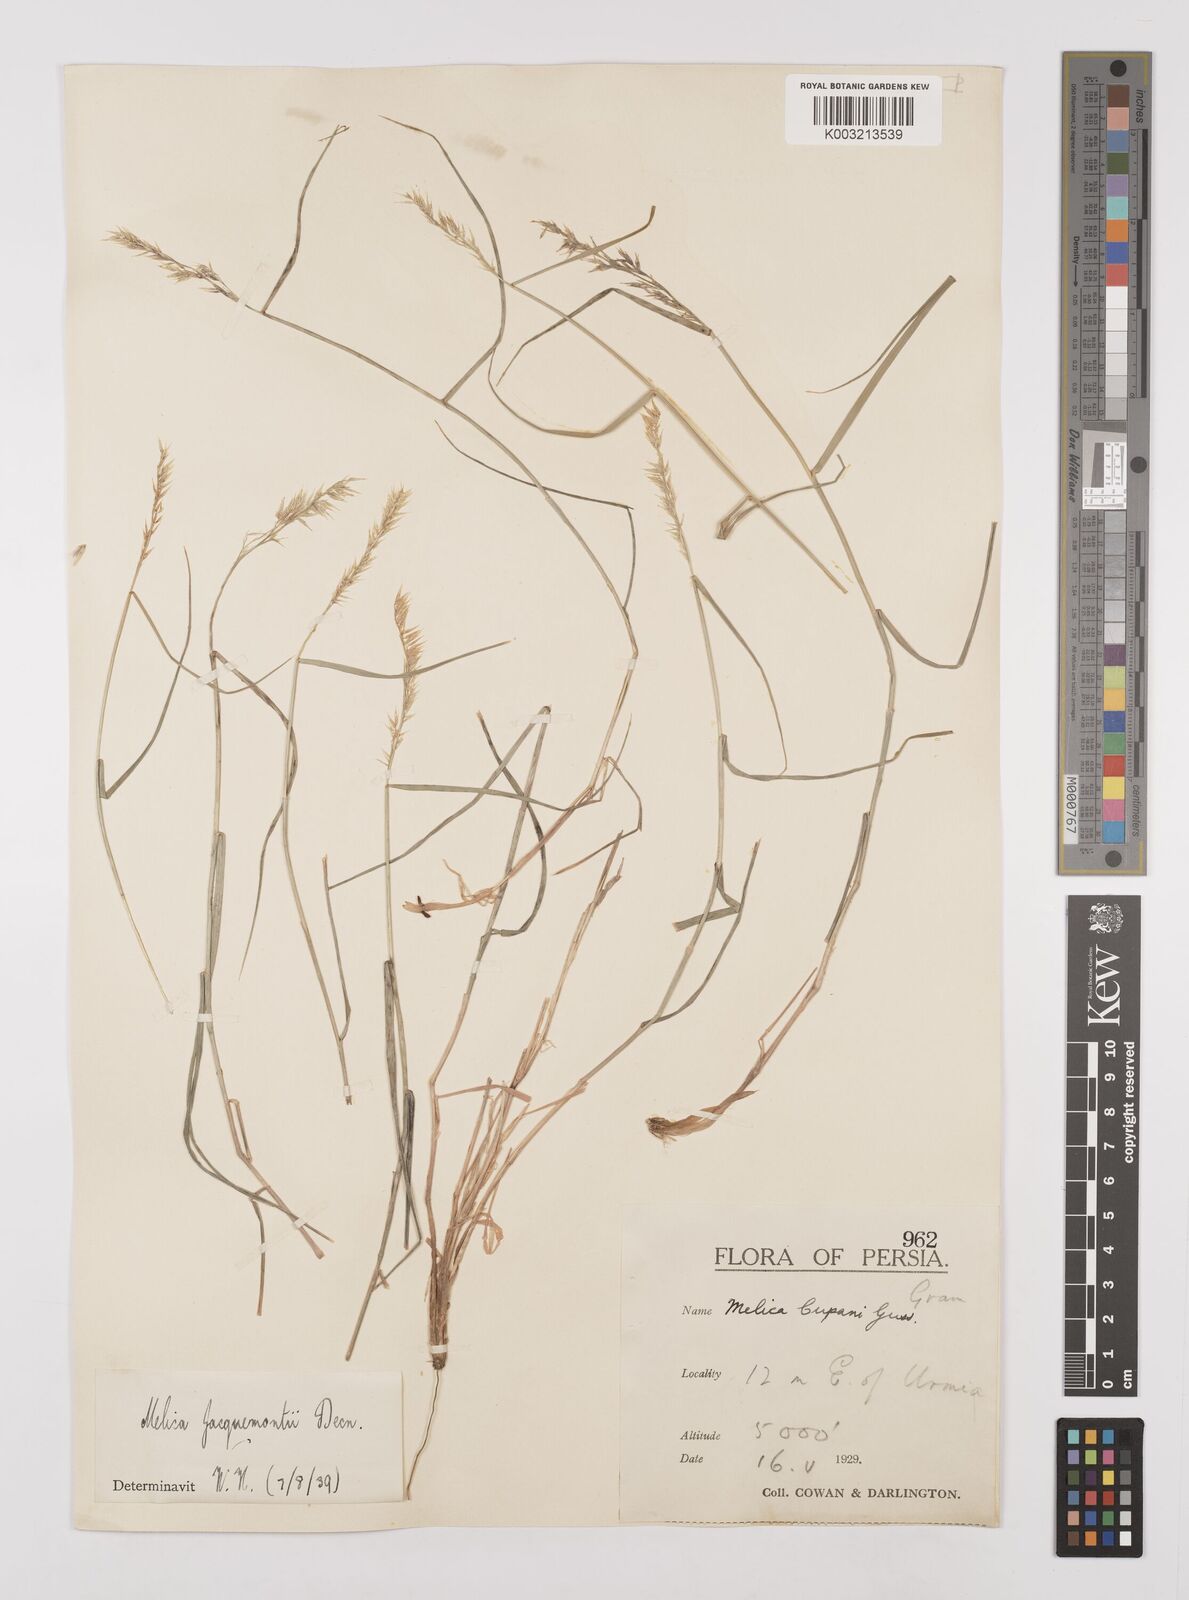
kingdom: Plantae
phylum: Tracheophyta
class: Liliopsida
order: Poales
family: Poaceae
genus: Melica
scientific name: Melica persica
